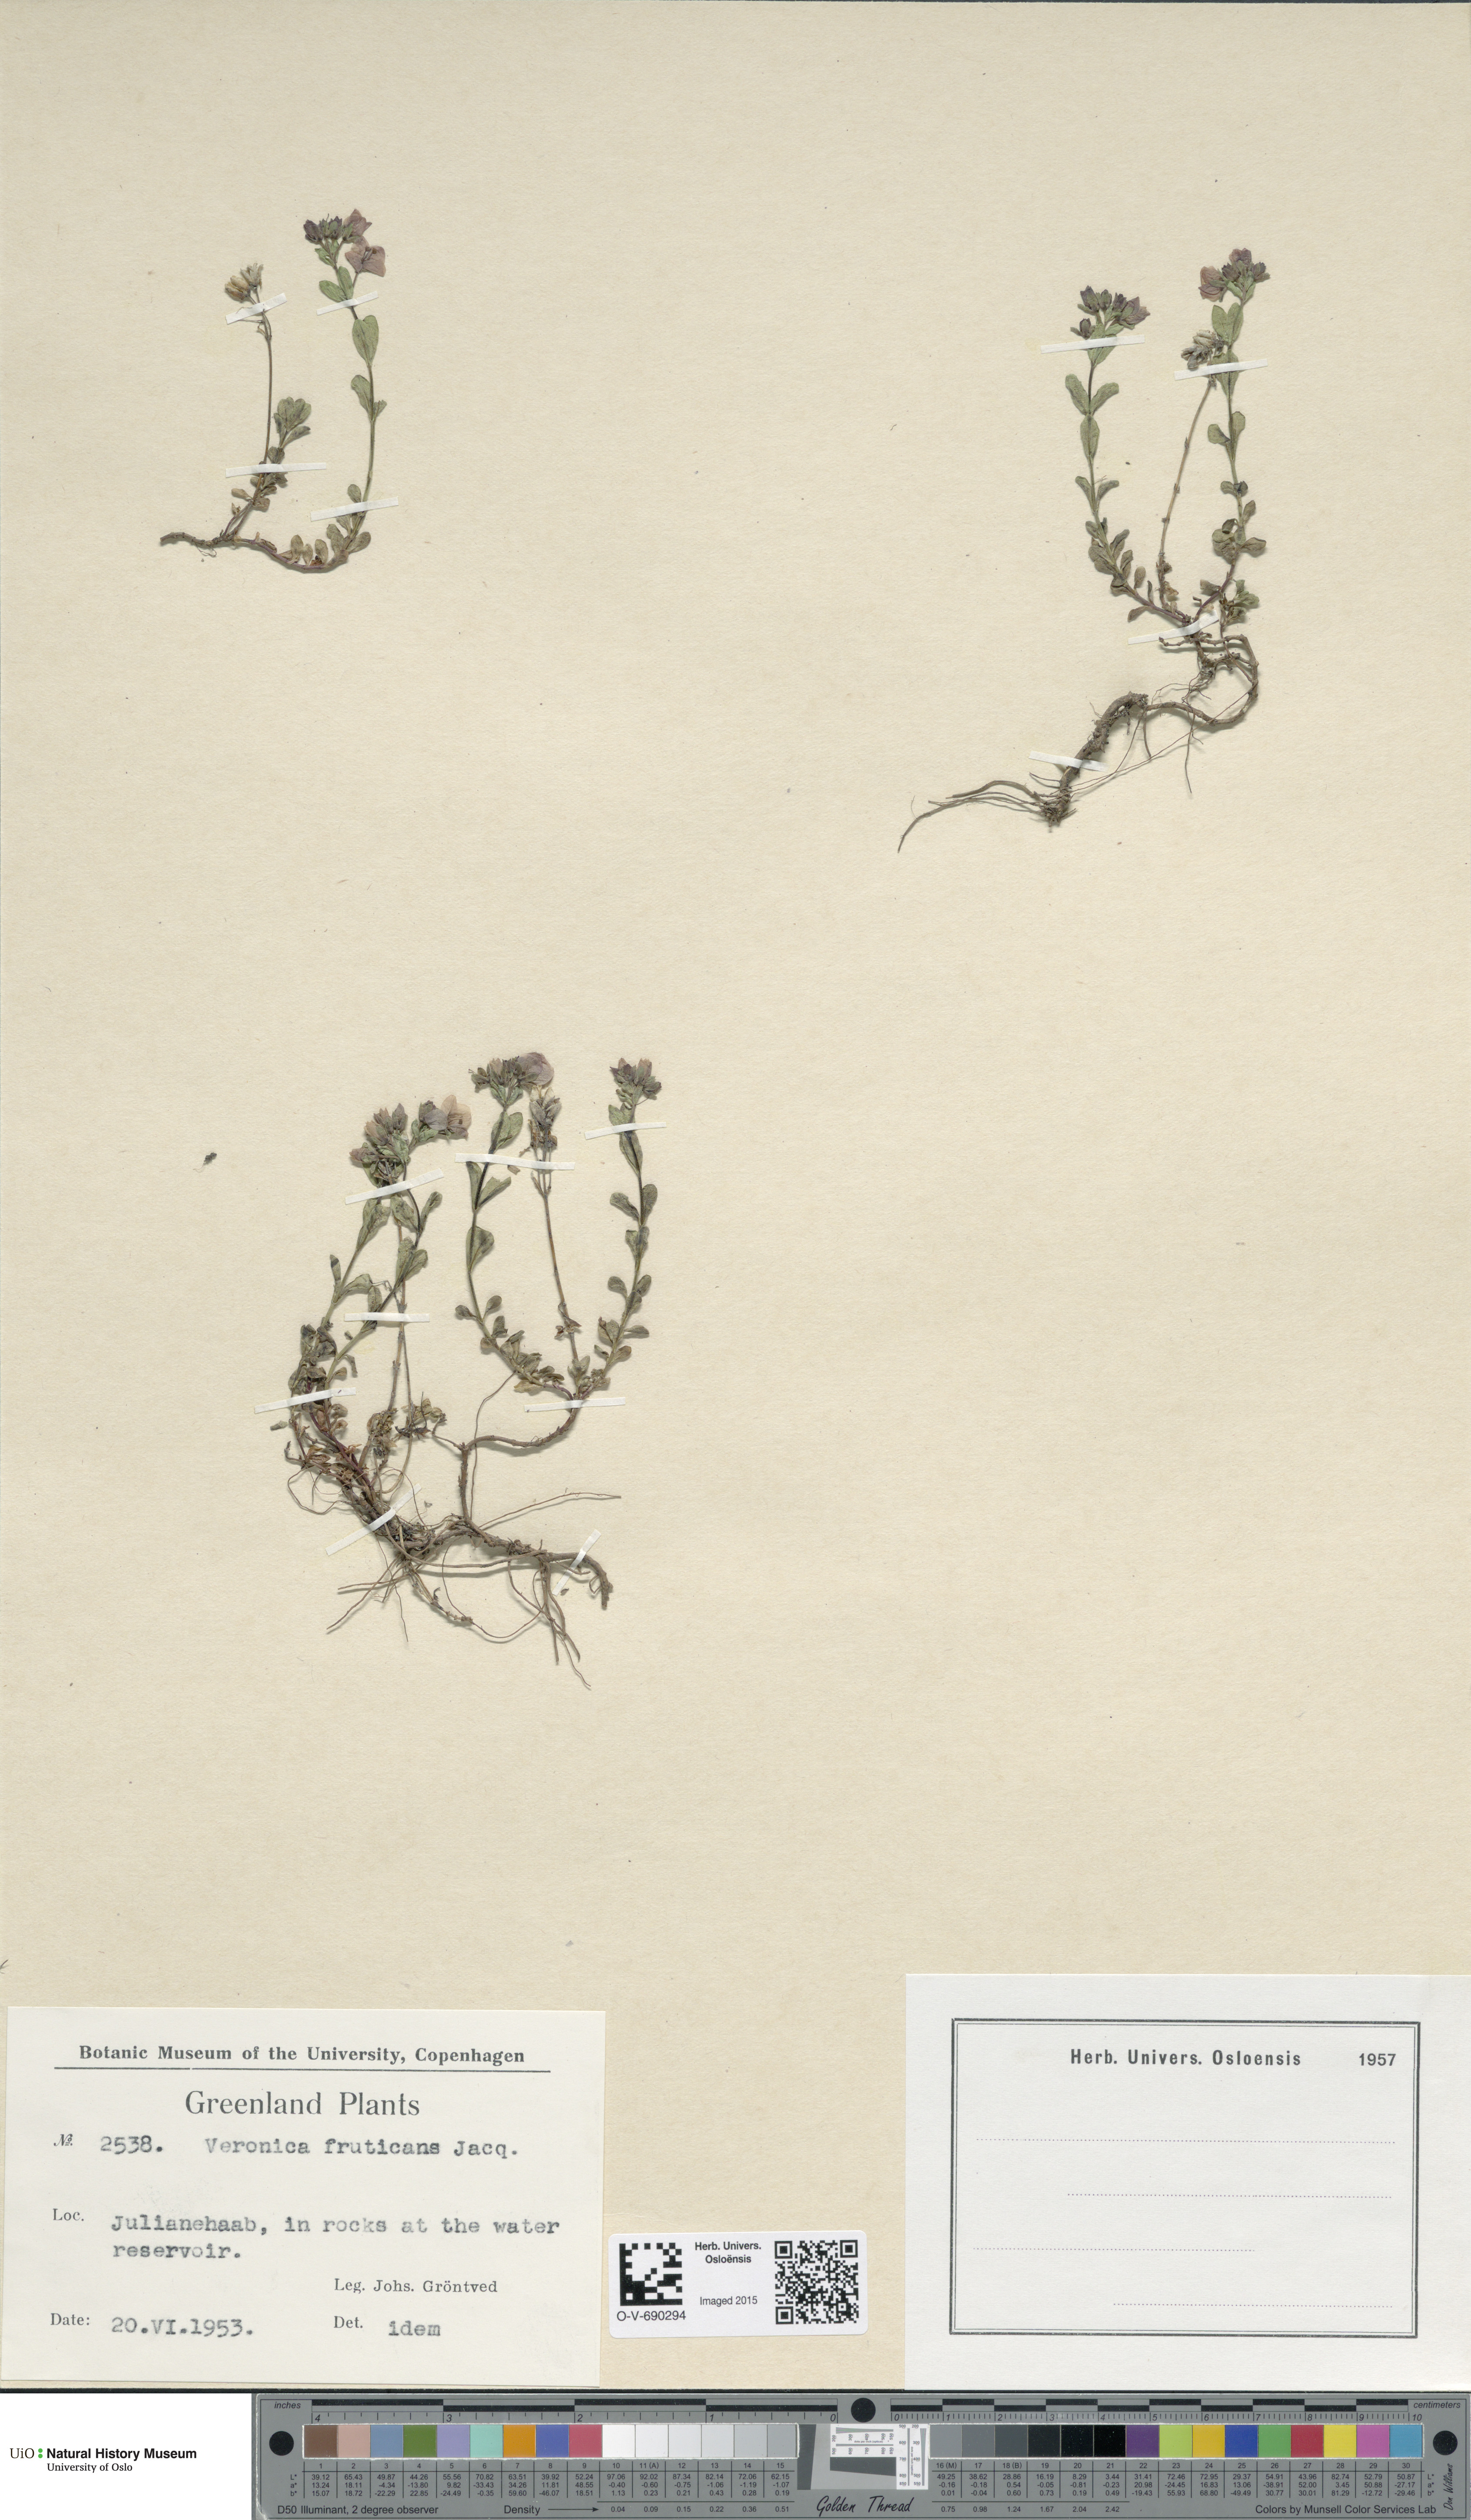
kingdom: Plantae
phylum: Tracheophyta
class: Magnoliopsida
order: Lamiales
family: Plantaginaceae
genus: Veronica
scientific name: Veronica fruticans
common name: Rock speedwell
